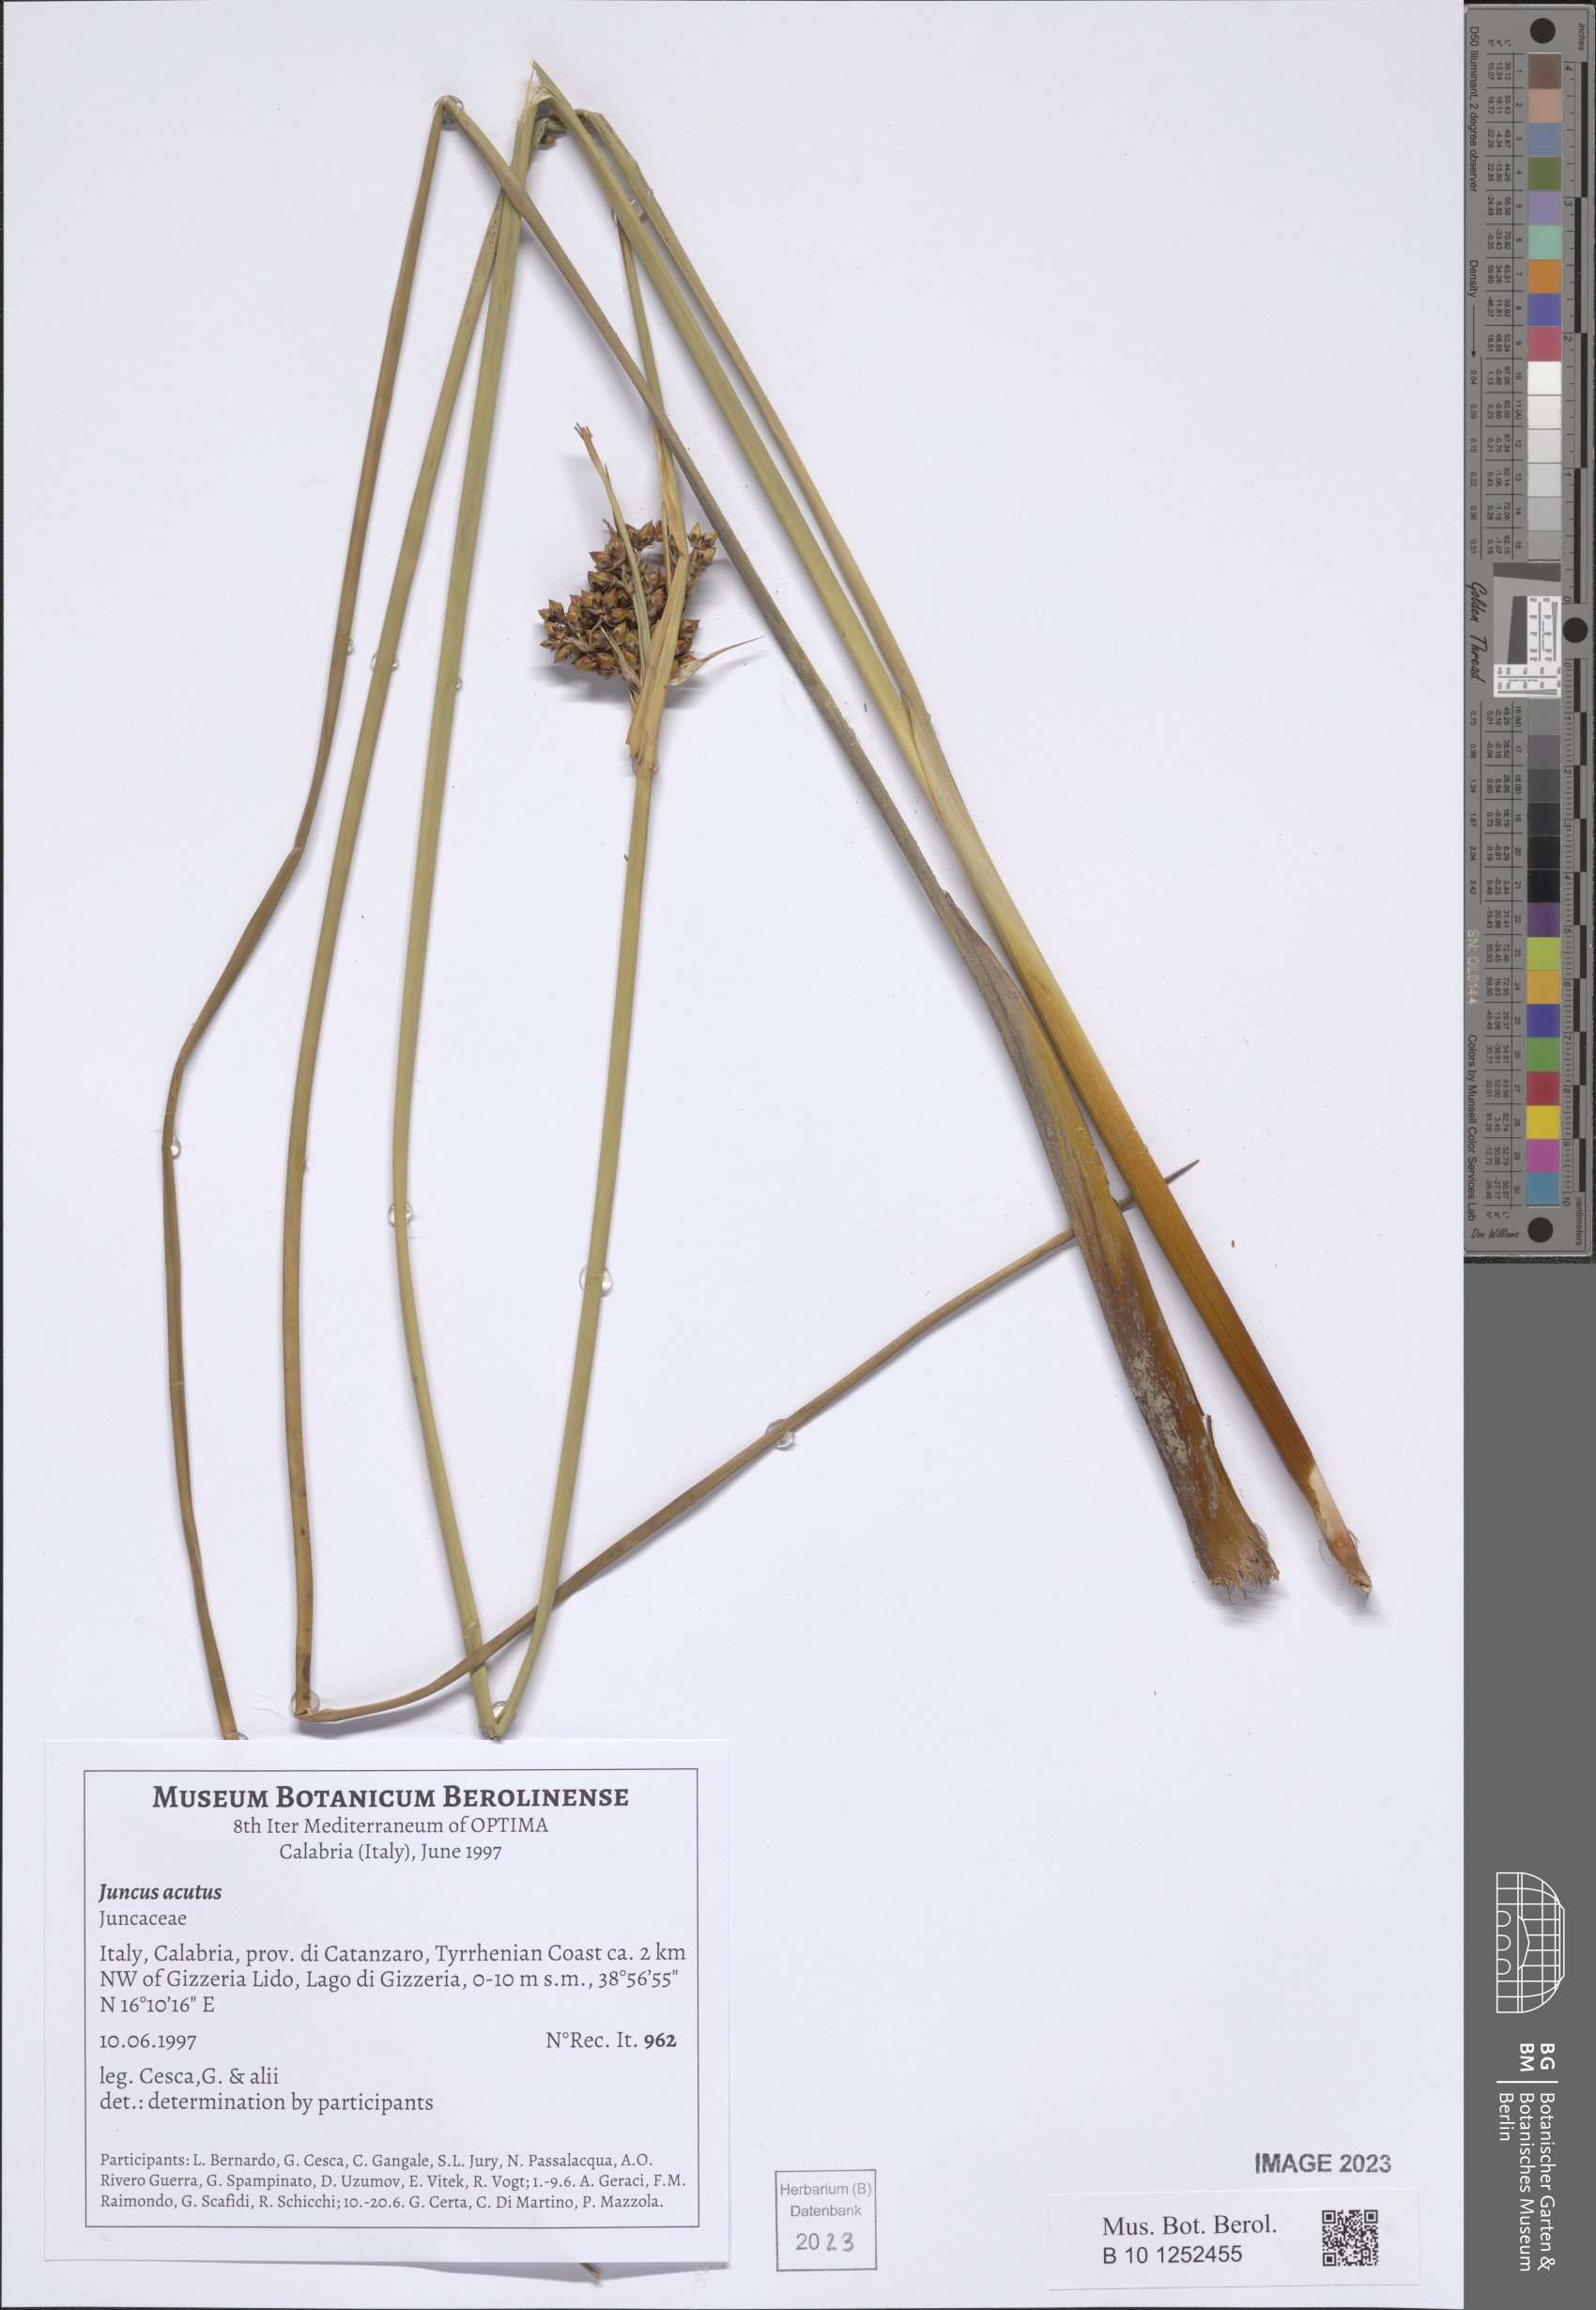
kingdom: Plantae
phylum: Tracheophyta
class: Liliopsida
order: Poales
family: Juncaceae
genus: Juncus
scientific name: Juncus acutus
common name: Sharp rush
